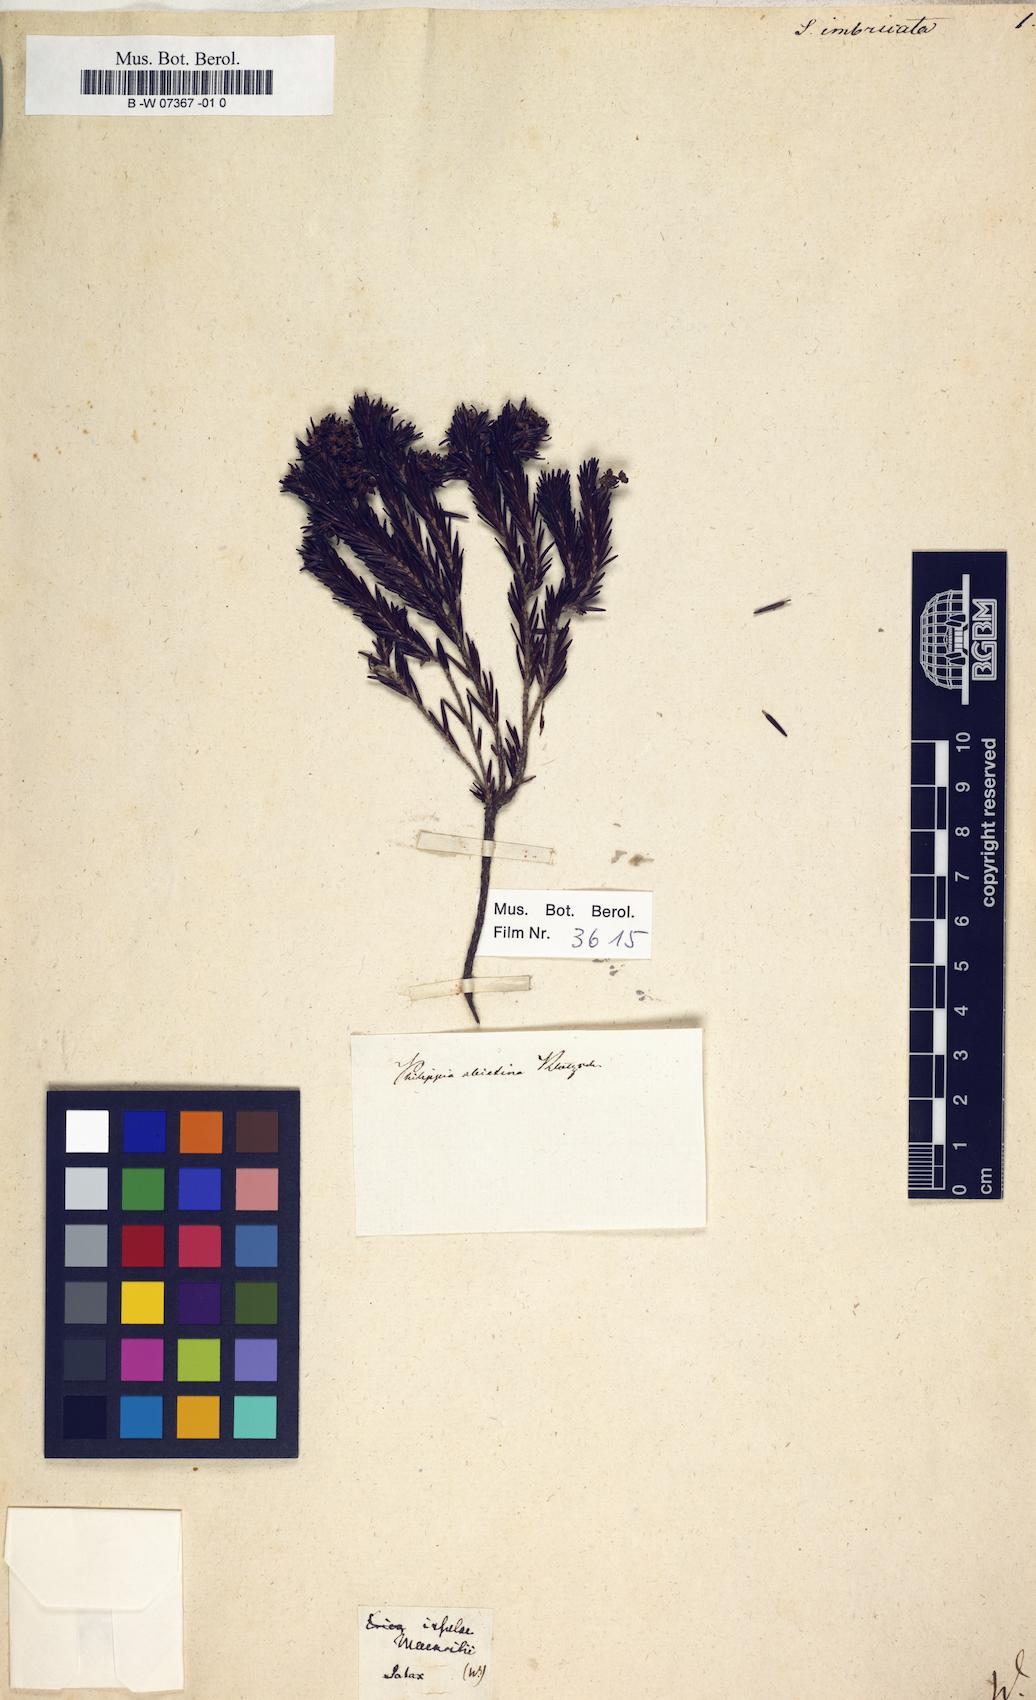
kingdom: Plantae
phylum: Tracheophyta
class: Magnoliopsida
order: Ericales
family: Ericaceae
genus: Erica
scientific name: Erica mauritiensis
